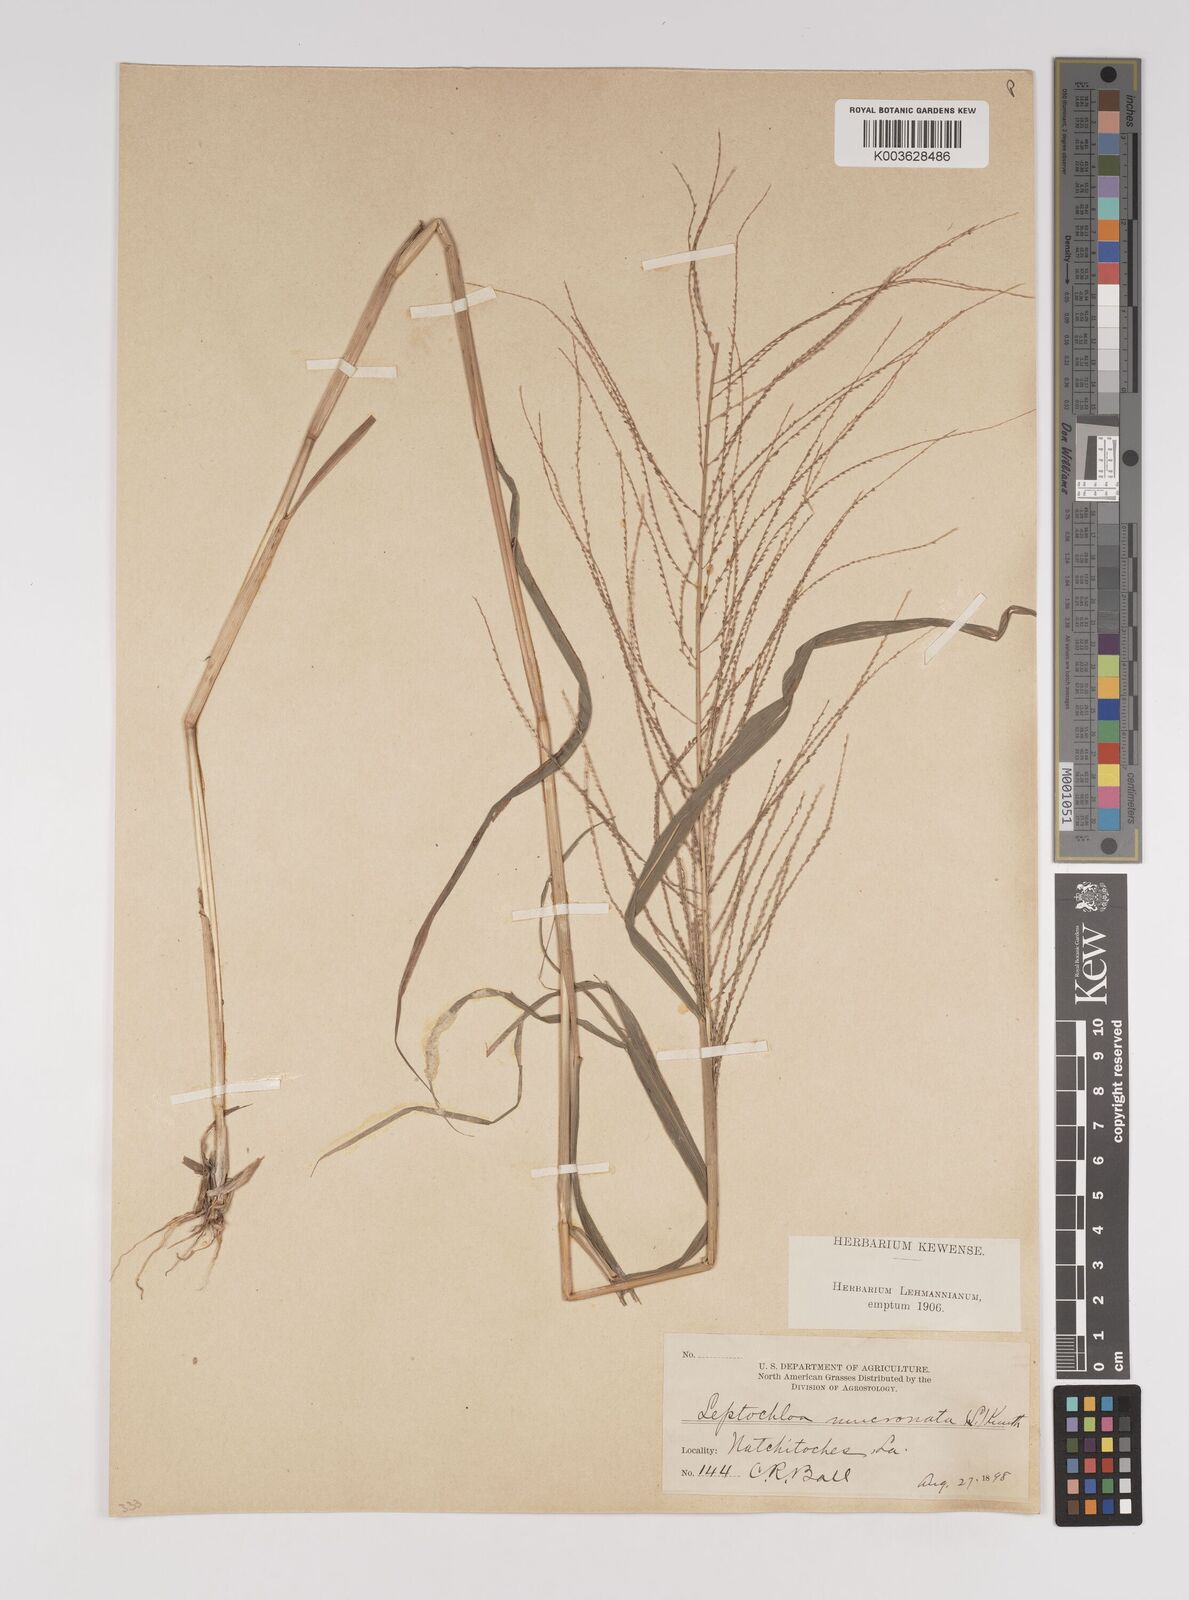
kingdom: Plantae
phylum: Tracheophyta
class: Liliopsida
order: Poales
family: Poaceae
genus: Leptochloa
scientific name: Leptochloa panicea
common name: Mucronate sprangletop
